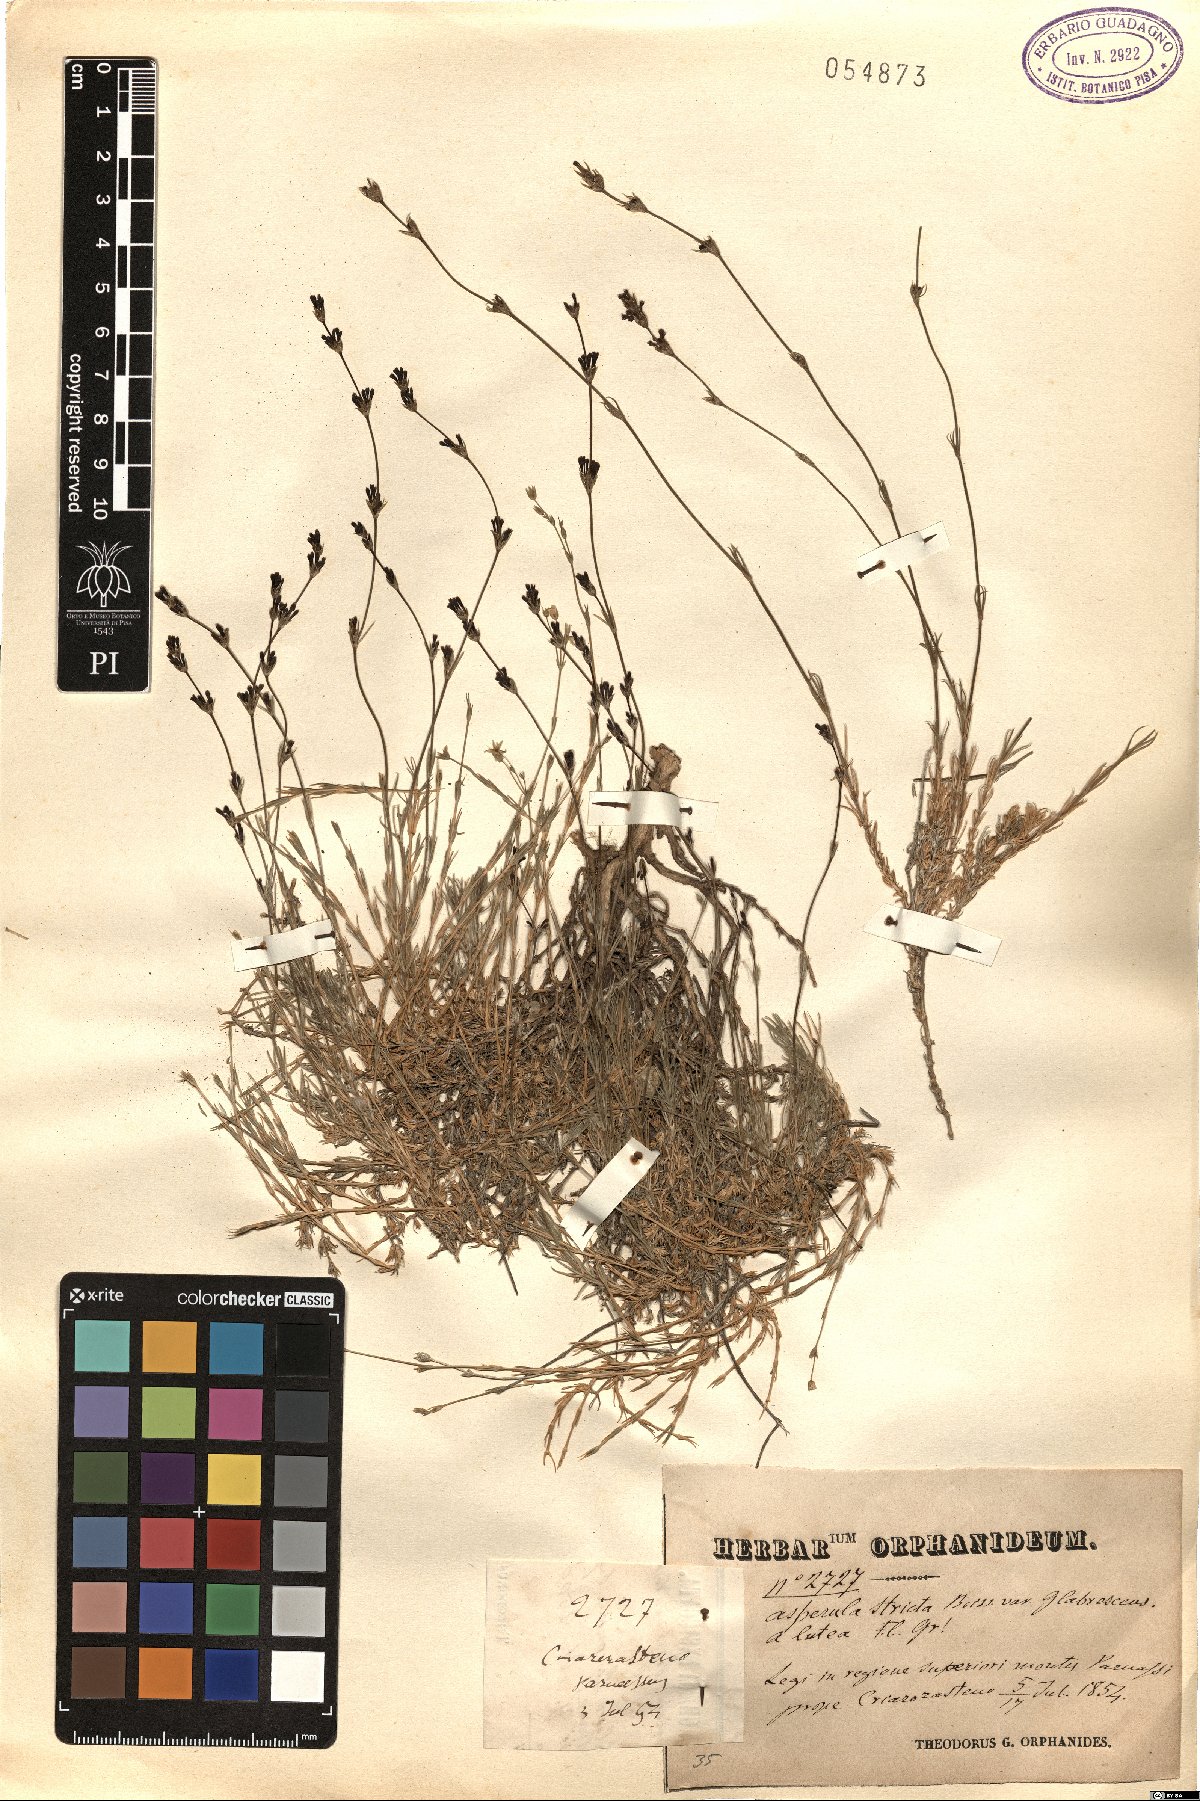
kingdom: Plantae
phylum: Tracheophyta
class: Magnoliopsida
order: Gentianales
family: Rubiaceae
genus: Cynanchica
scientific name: Cynanchica rigidula
